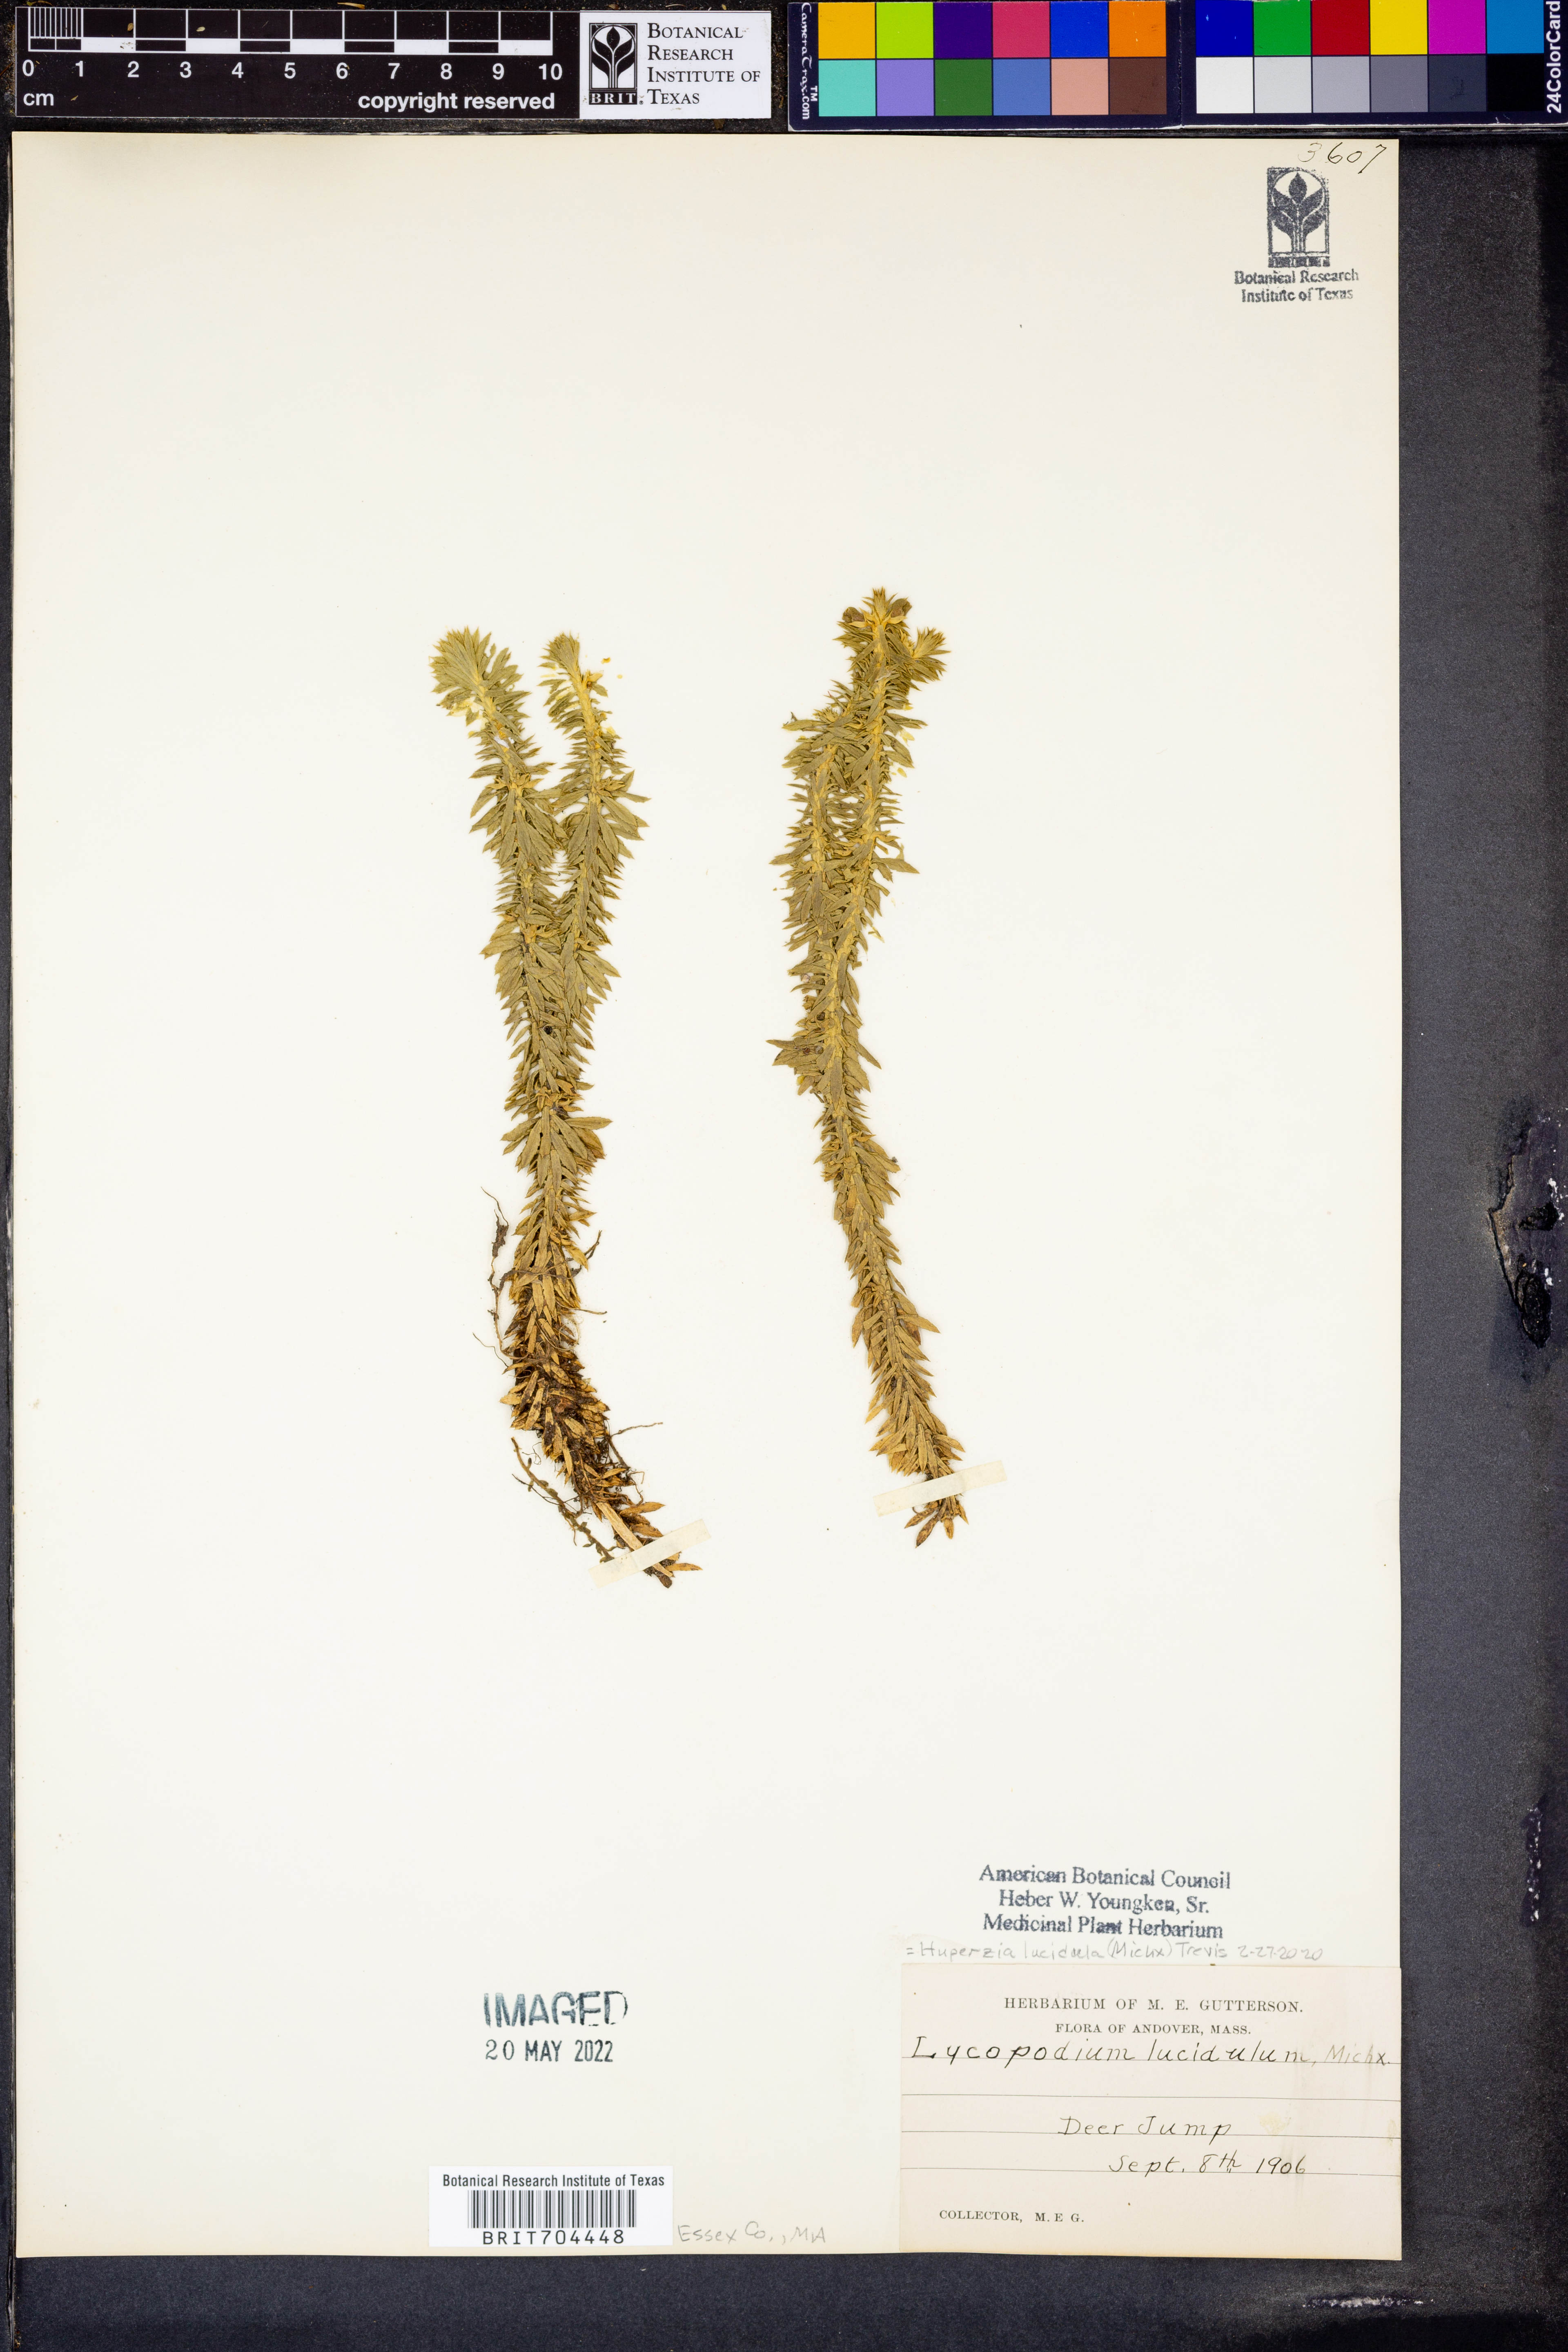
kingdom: Plantae
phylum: Tracheophyta
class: Lycopodiopsida
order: Lycopodiales
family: Lycopodiaceae
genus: Huperzia
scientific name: Huperzia lucidula
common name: Shining clubmoss
